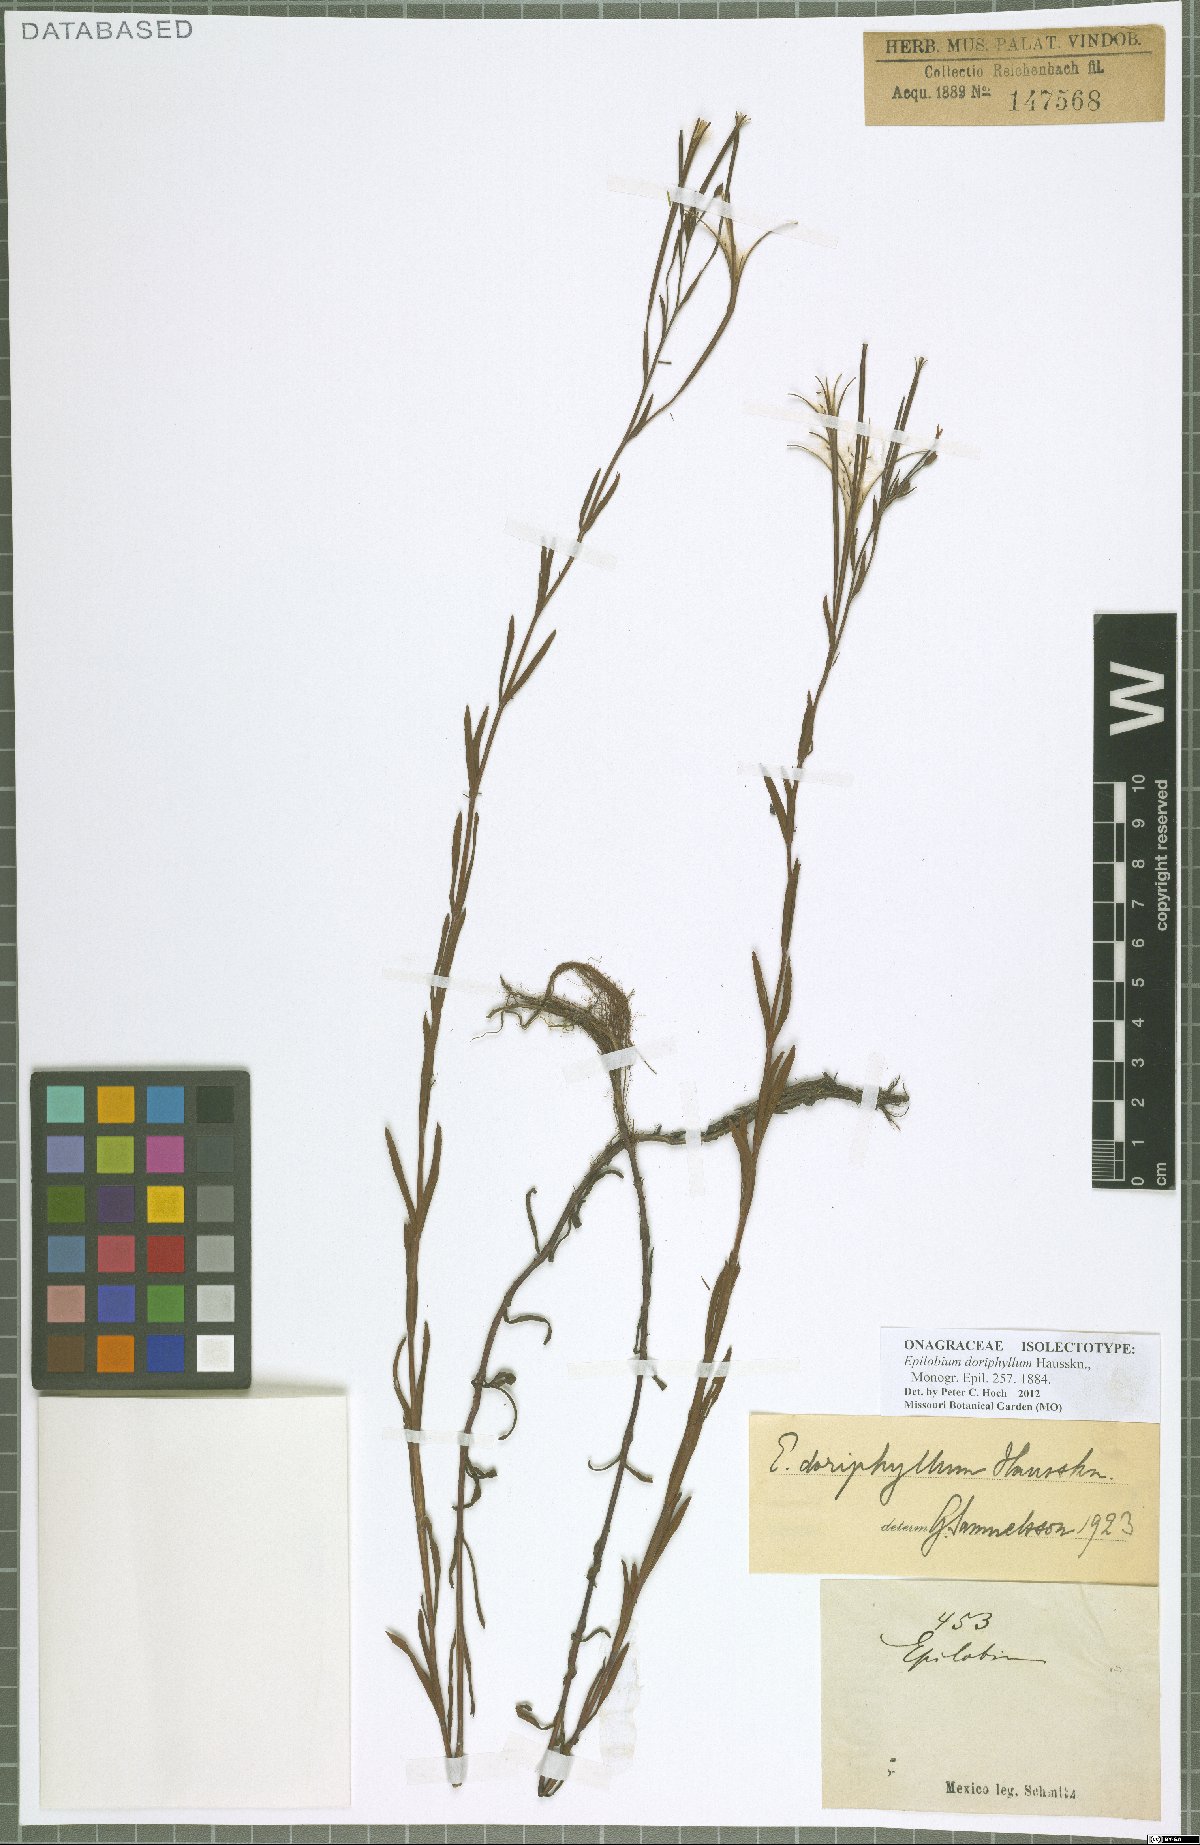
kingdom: Plantae
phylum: Tracheophyta
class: Magnoliopsida
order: Myrtales
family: Onagraceae
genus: Epilobium
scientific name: Epilobium ciliatum
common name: American willowherb
